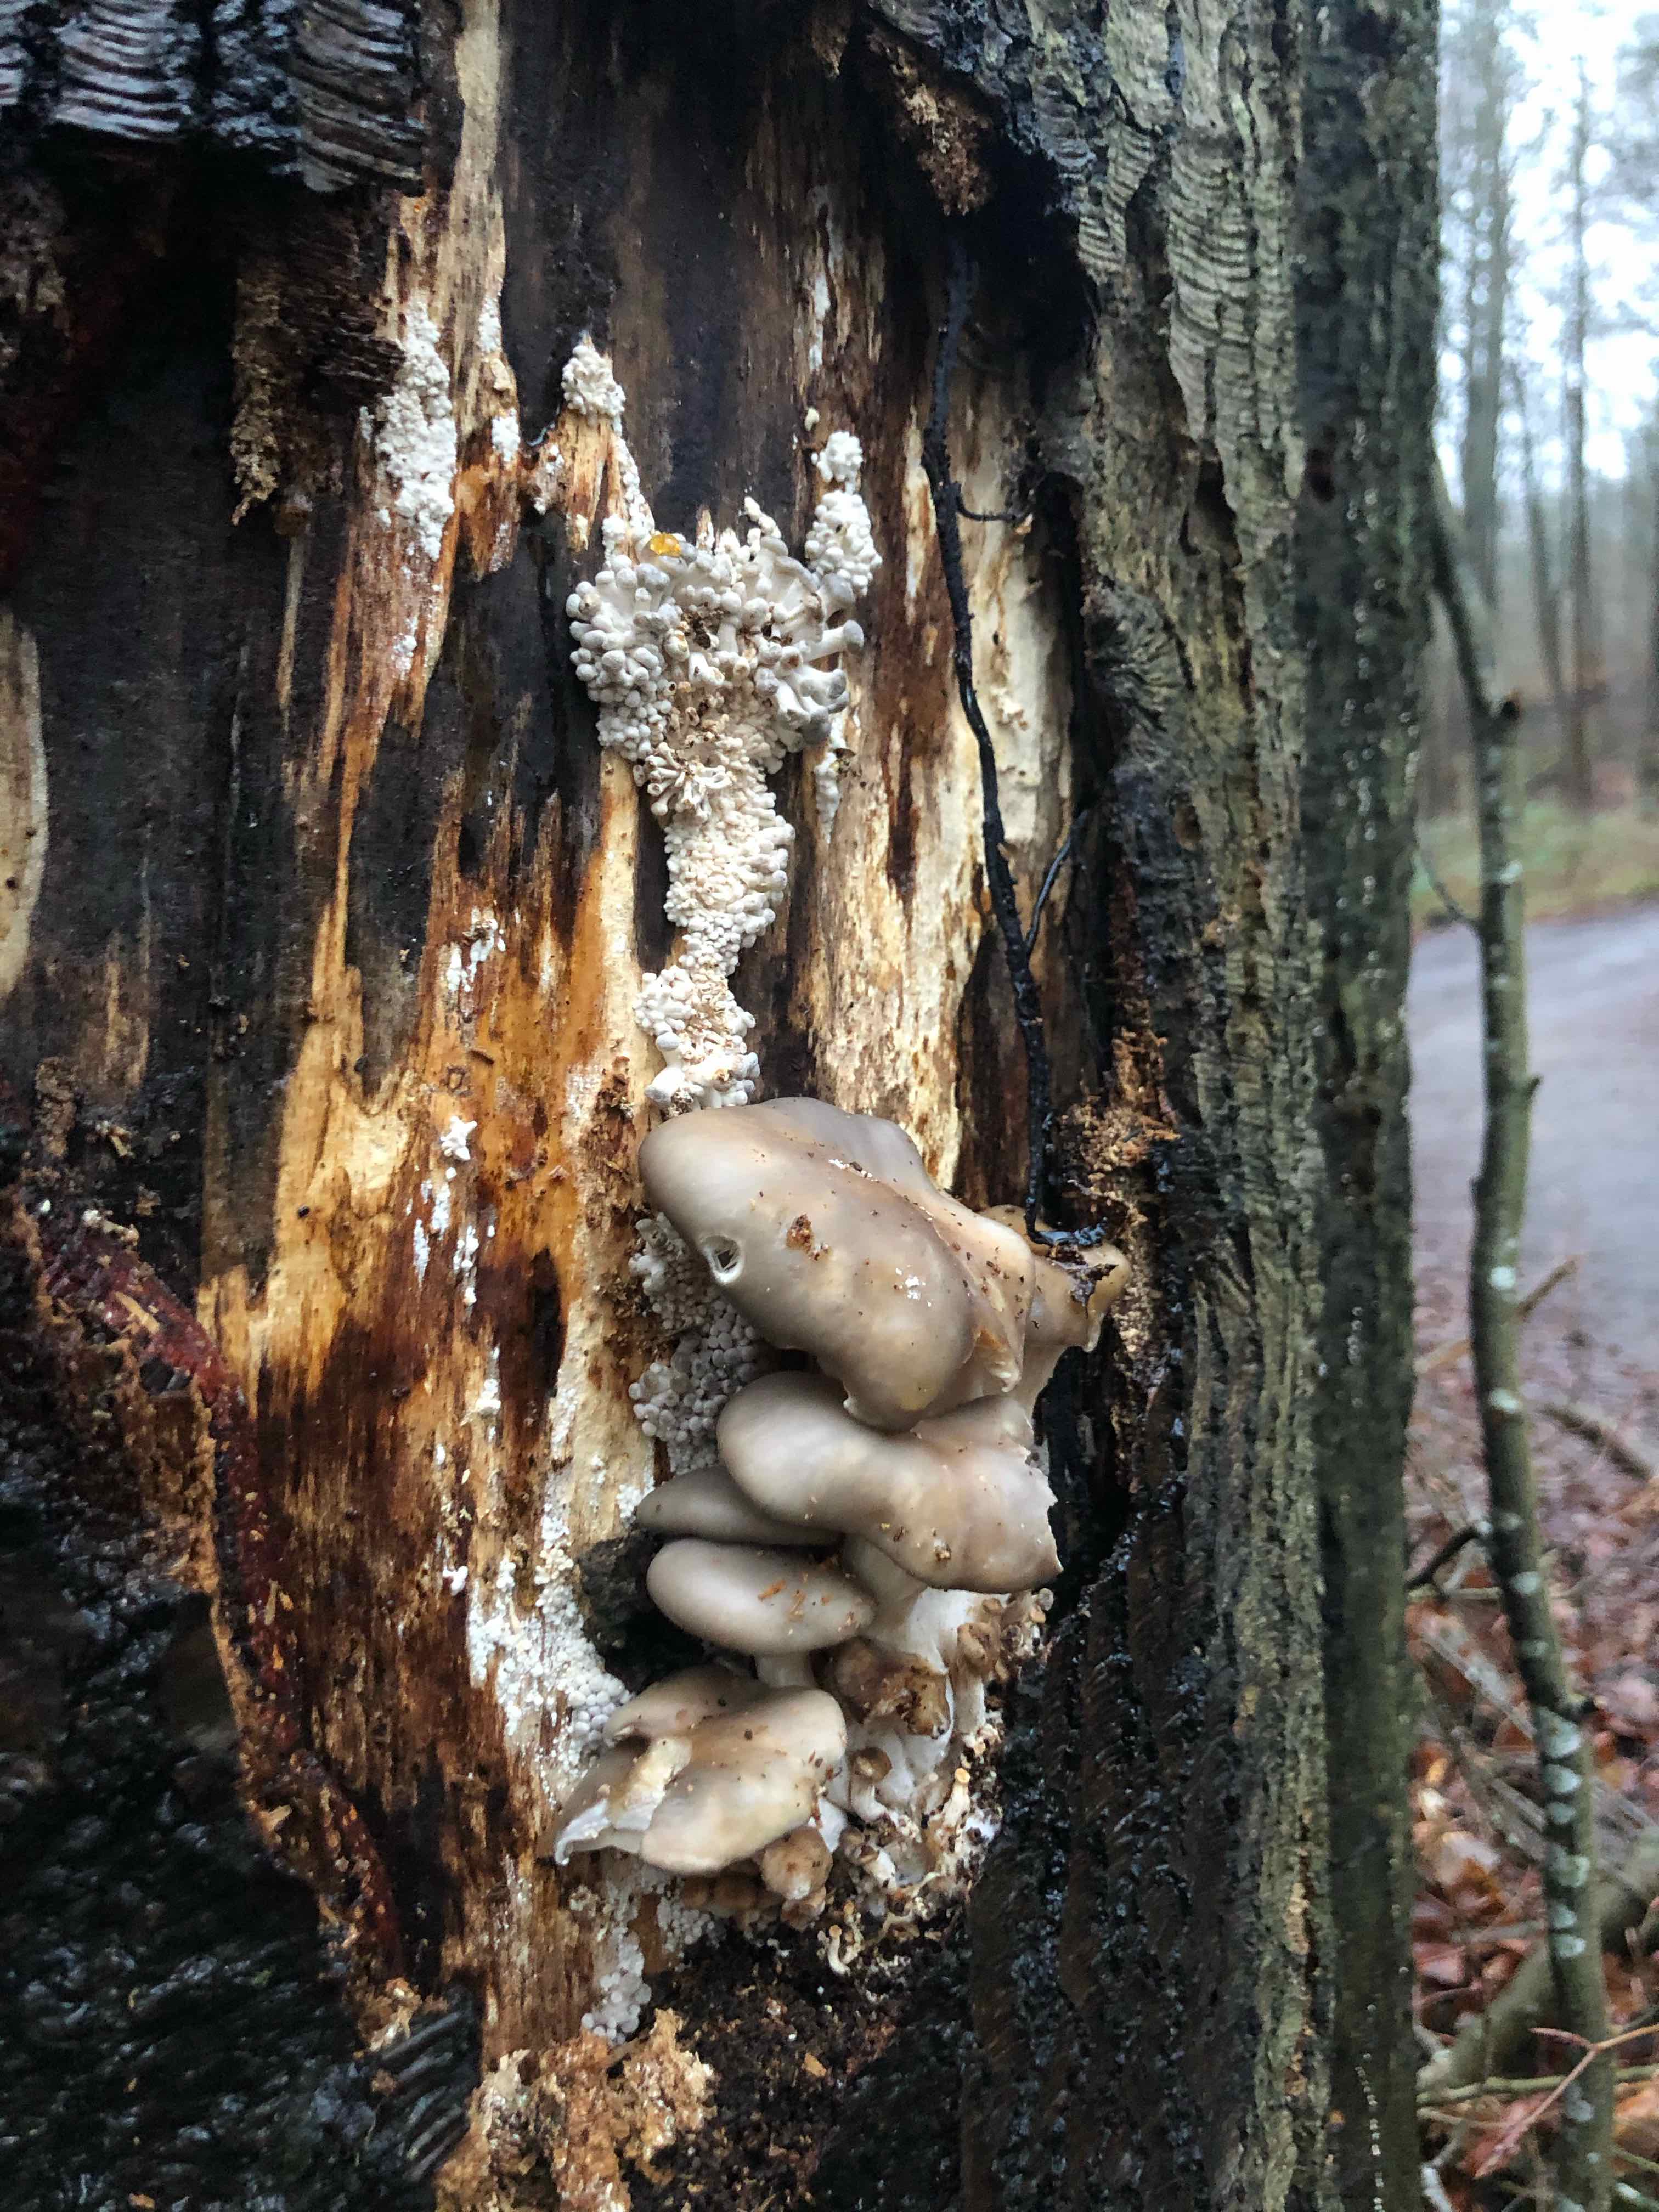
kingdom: Fungi
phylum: Basidiomycota
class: Agaricomycetes
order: Agaricales
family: Pleurotaceae
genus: Pleurotus
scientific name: Pleurotus ostreatus
